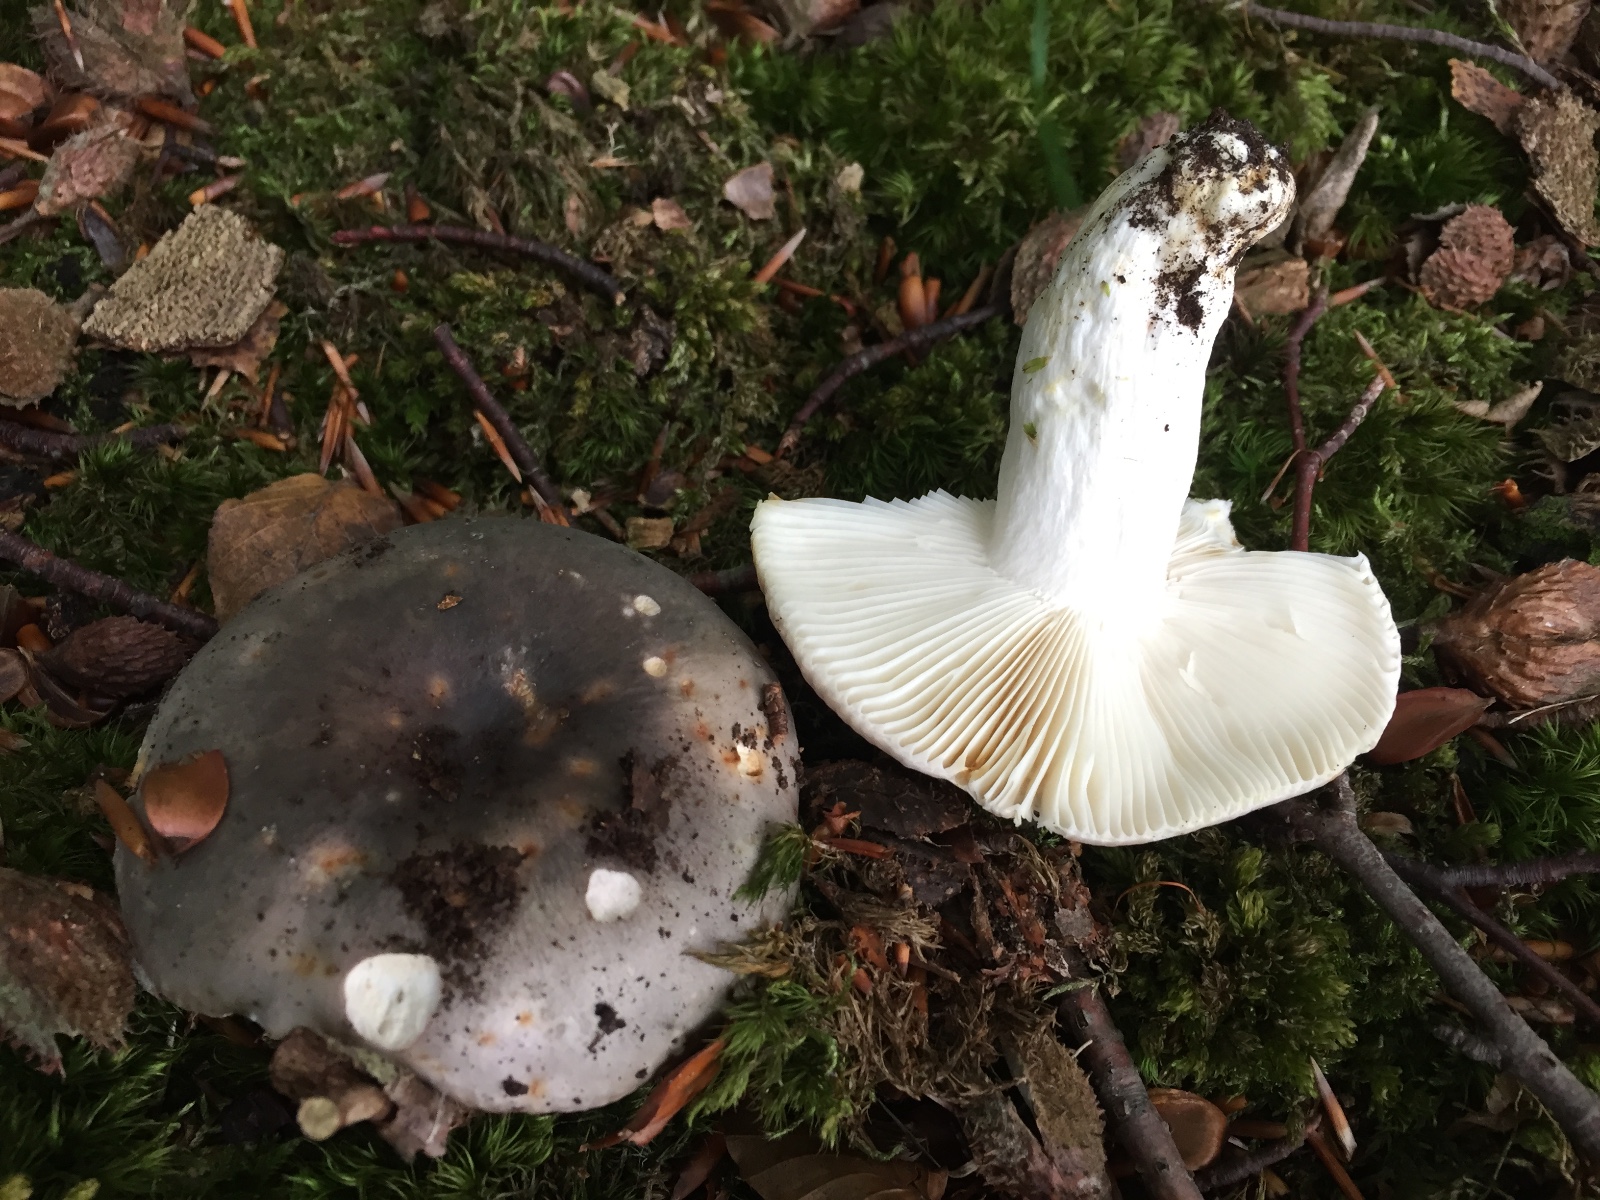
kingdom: Fungi
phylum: Basidiomycota
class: Agaricomycetes
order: Russulales
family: Russulaceae
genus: Russula
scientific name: Russula cyanoxantha
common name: broget skørhat
